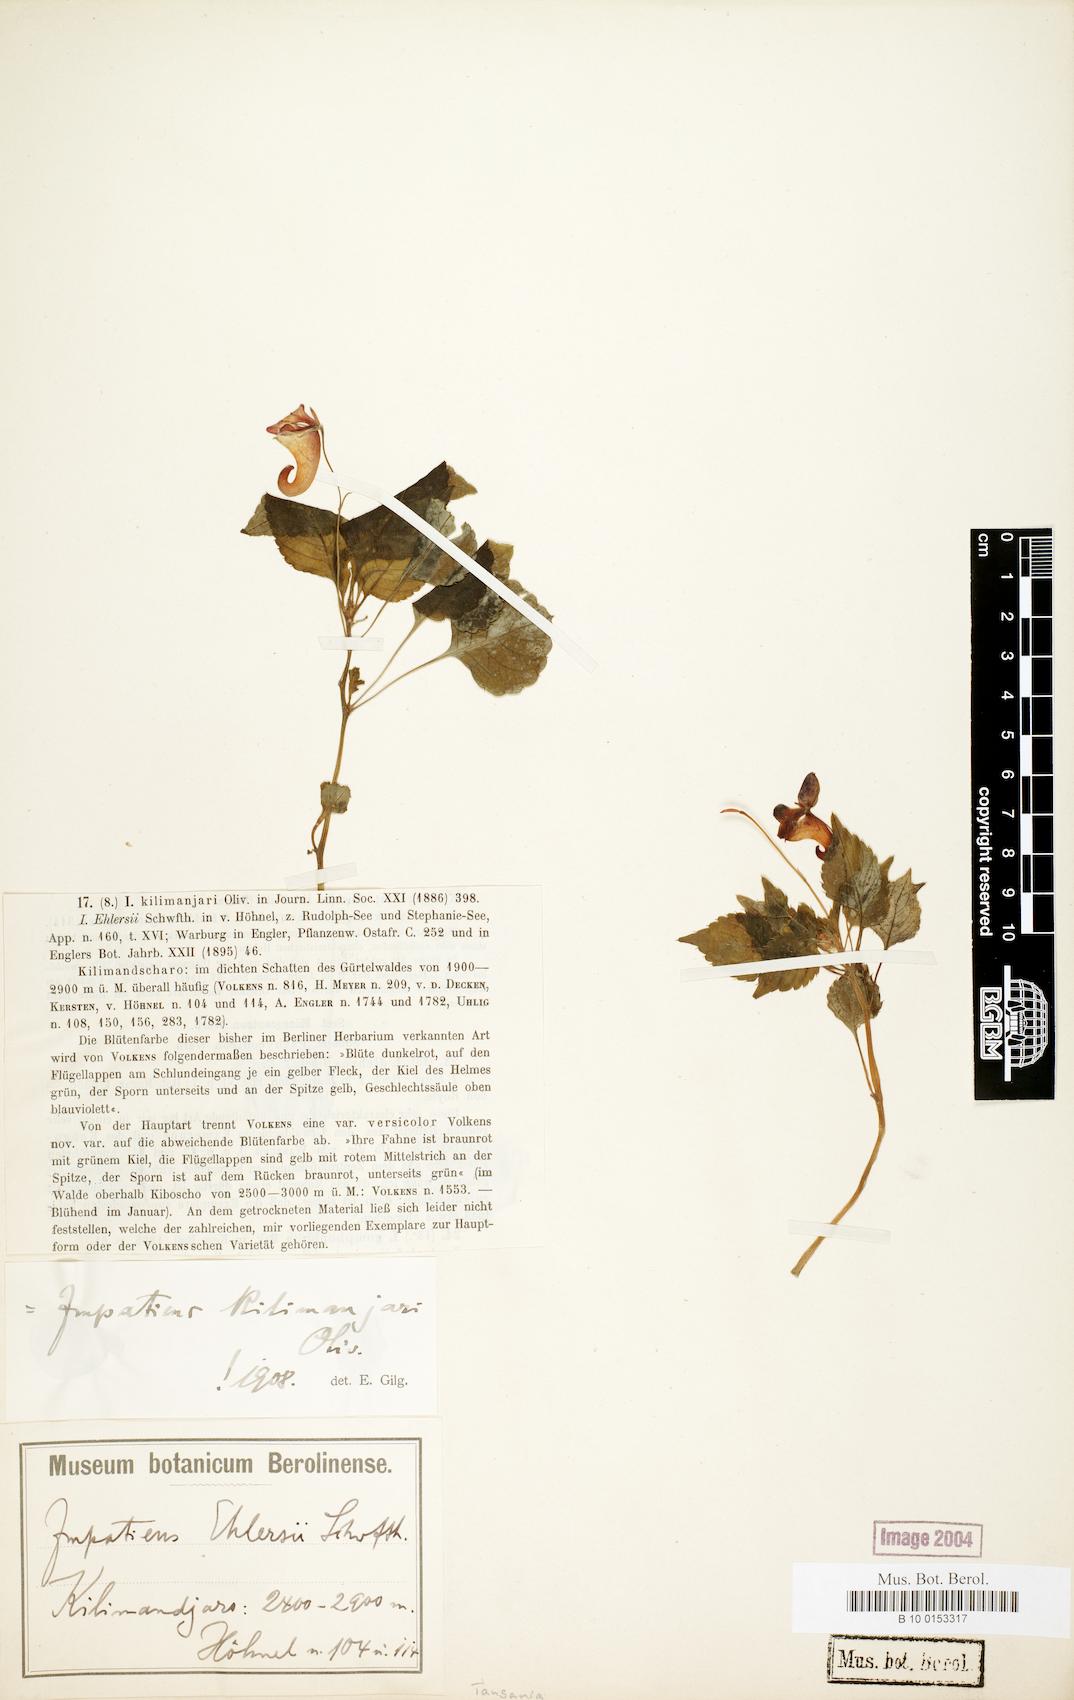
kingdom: Plantae
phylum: Tracheophyta
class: Magnoliopsida
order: Ericales
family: Balsaminaceae
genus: Impatiens
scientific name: Impatiens kilimanjari
